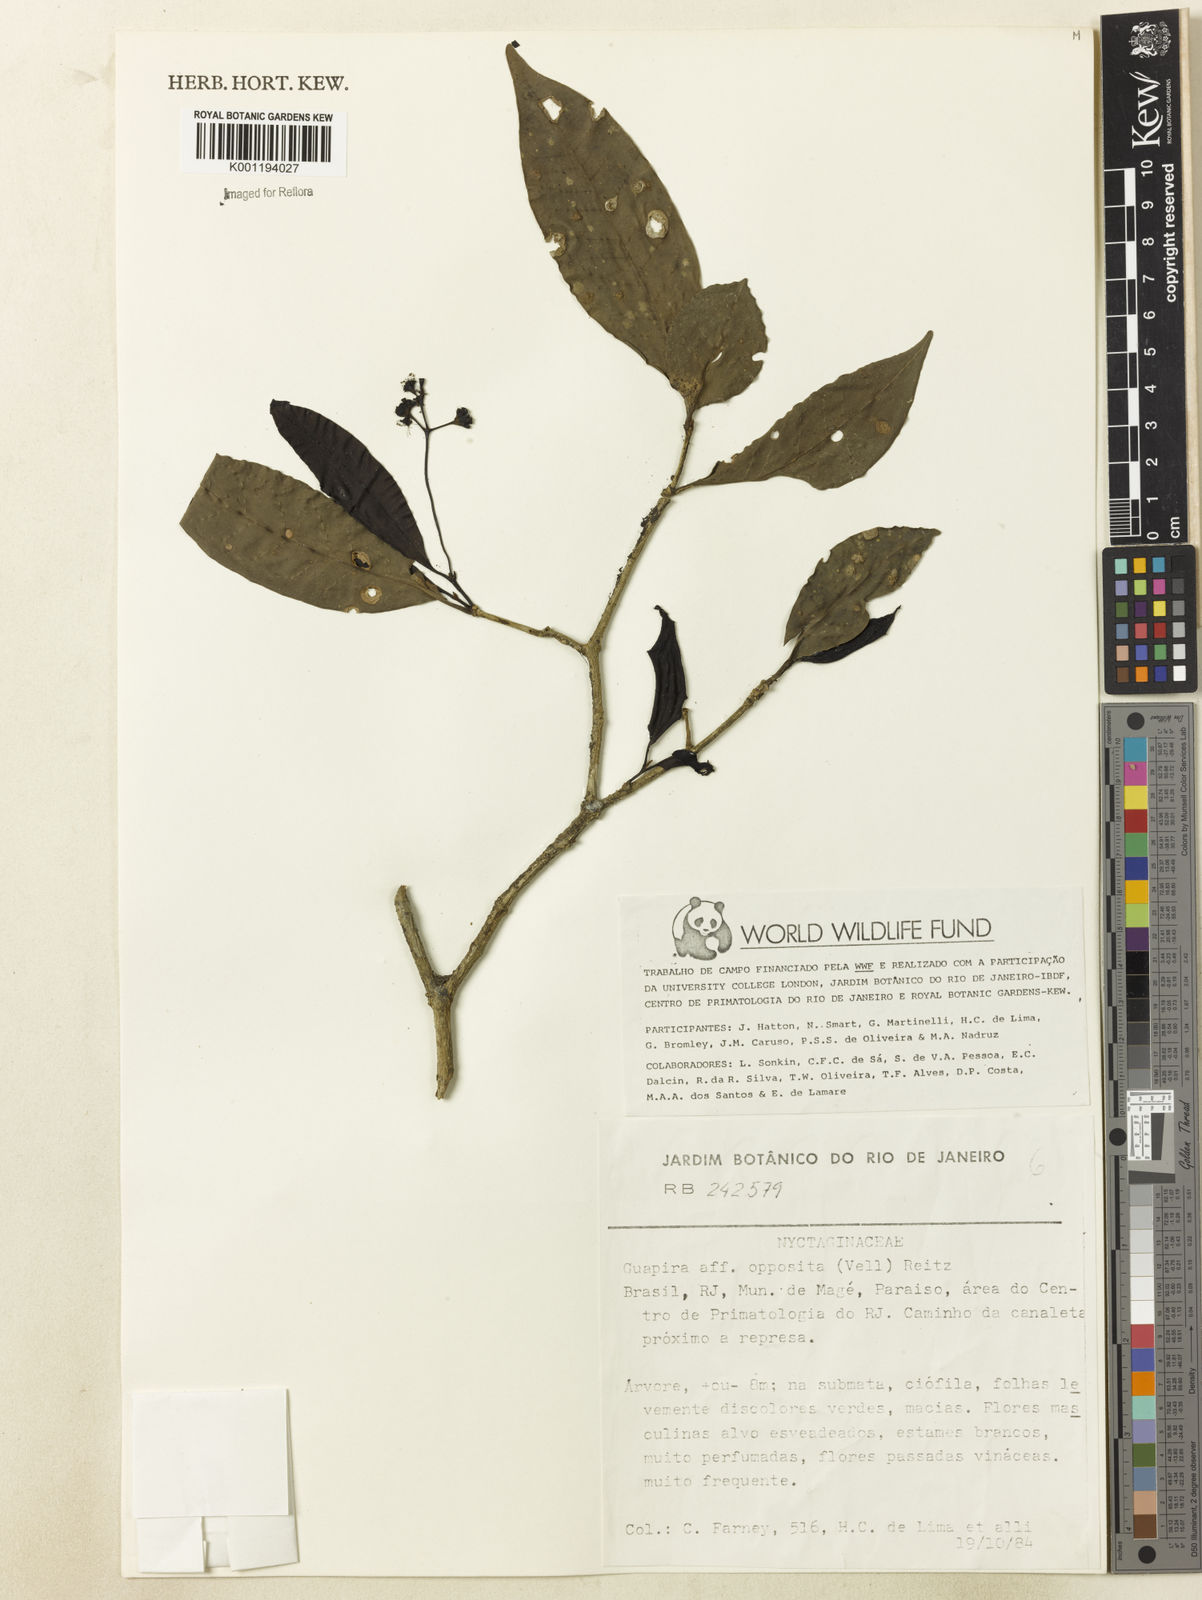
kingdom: Plantae
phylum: Tracheophyta
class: Magnoliopsida
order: Caryophyllales
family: Nyctaginaceae
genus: Guapira
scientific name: Guapira opposita
